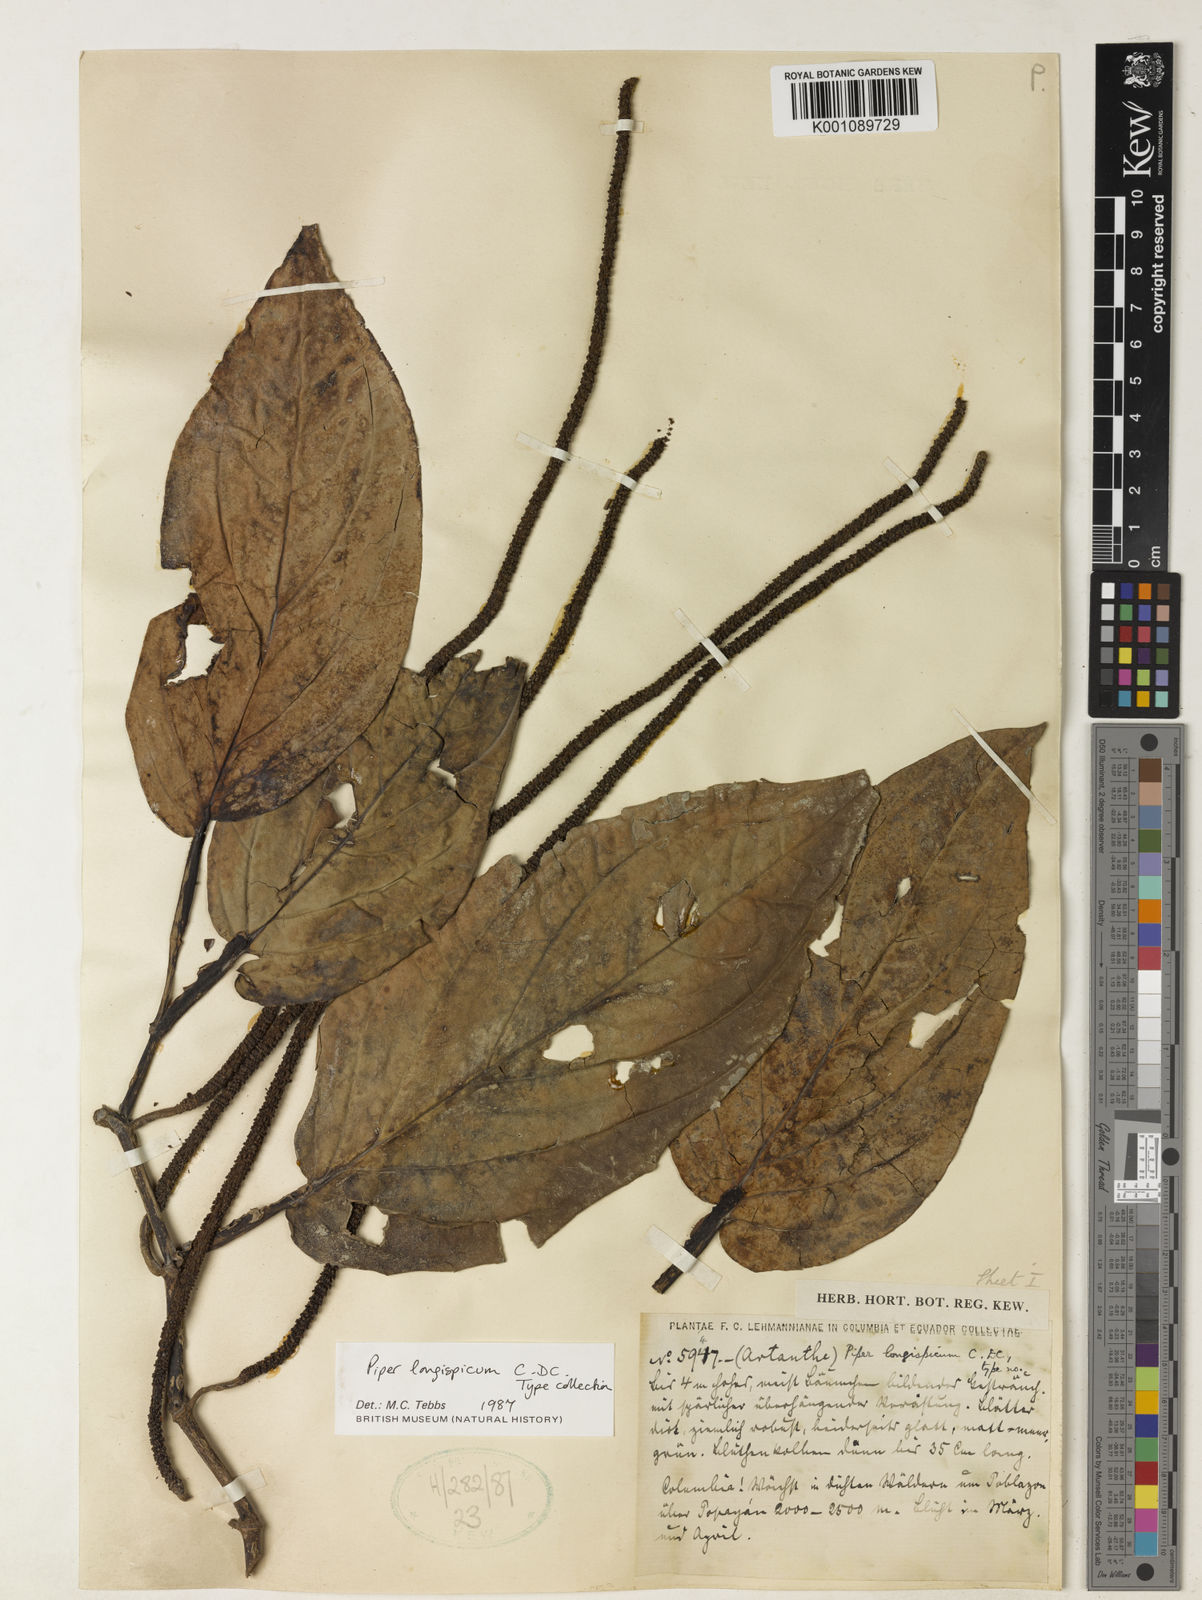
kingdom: Plantae
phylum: Tracheophyta
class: Magnoliopsida
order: Piperales
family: Piperaceae
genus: Piper
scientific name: Piper longispicum
